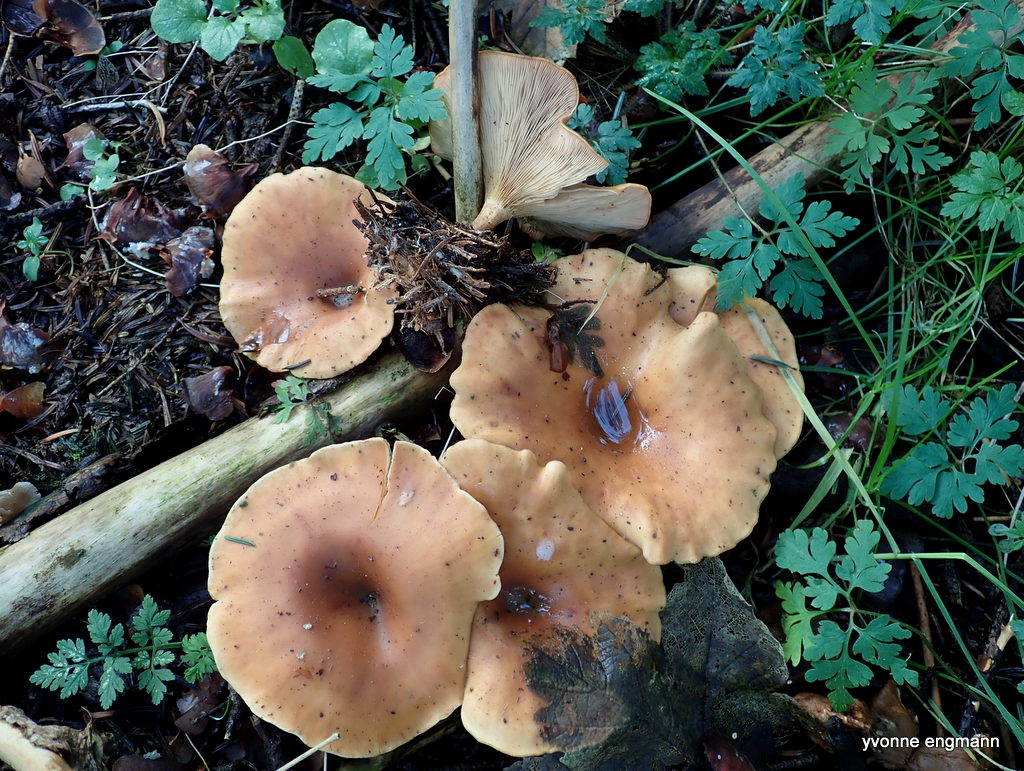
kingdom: Fungi
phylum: Basidiomycota
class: Agaricomycetes
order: Agaricales
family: Tricholomataceae
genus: Paralepista
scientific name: Paralepista flaccida
